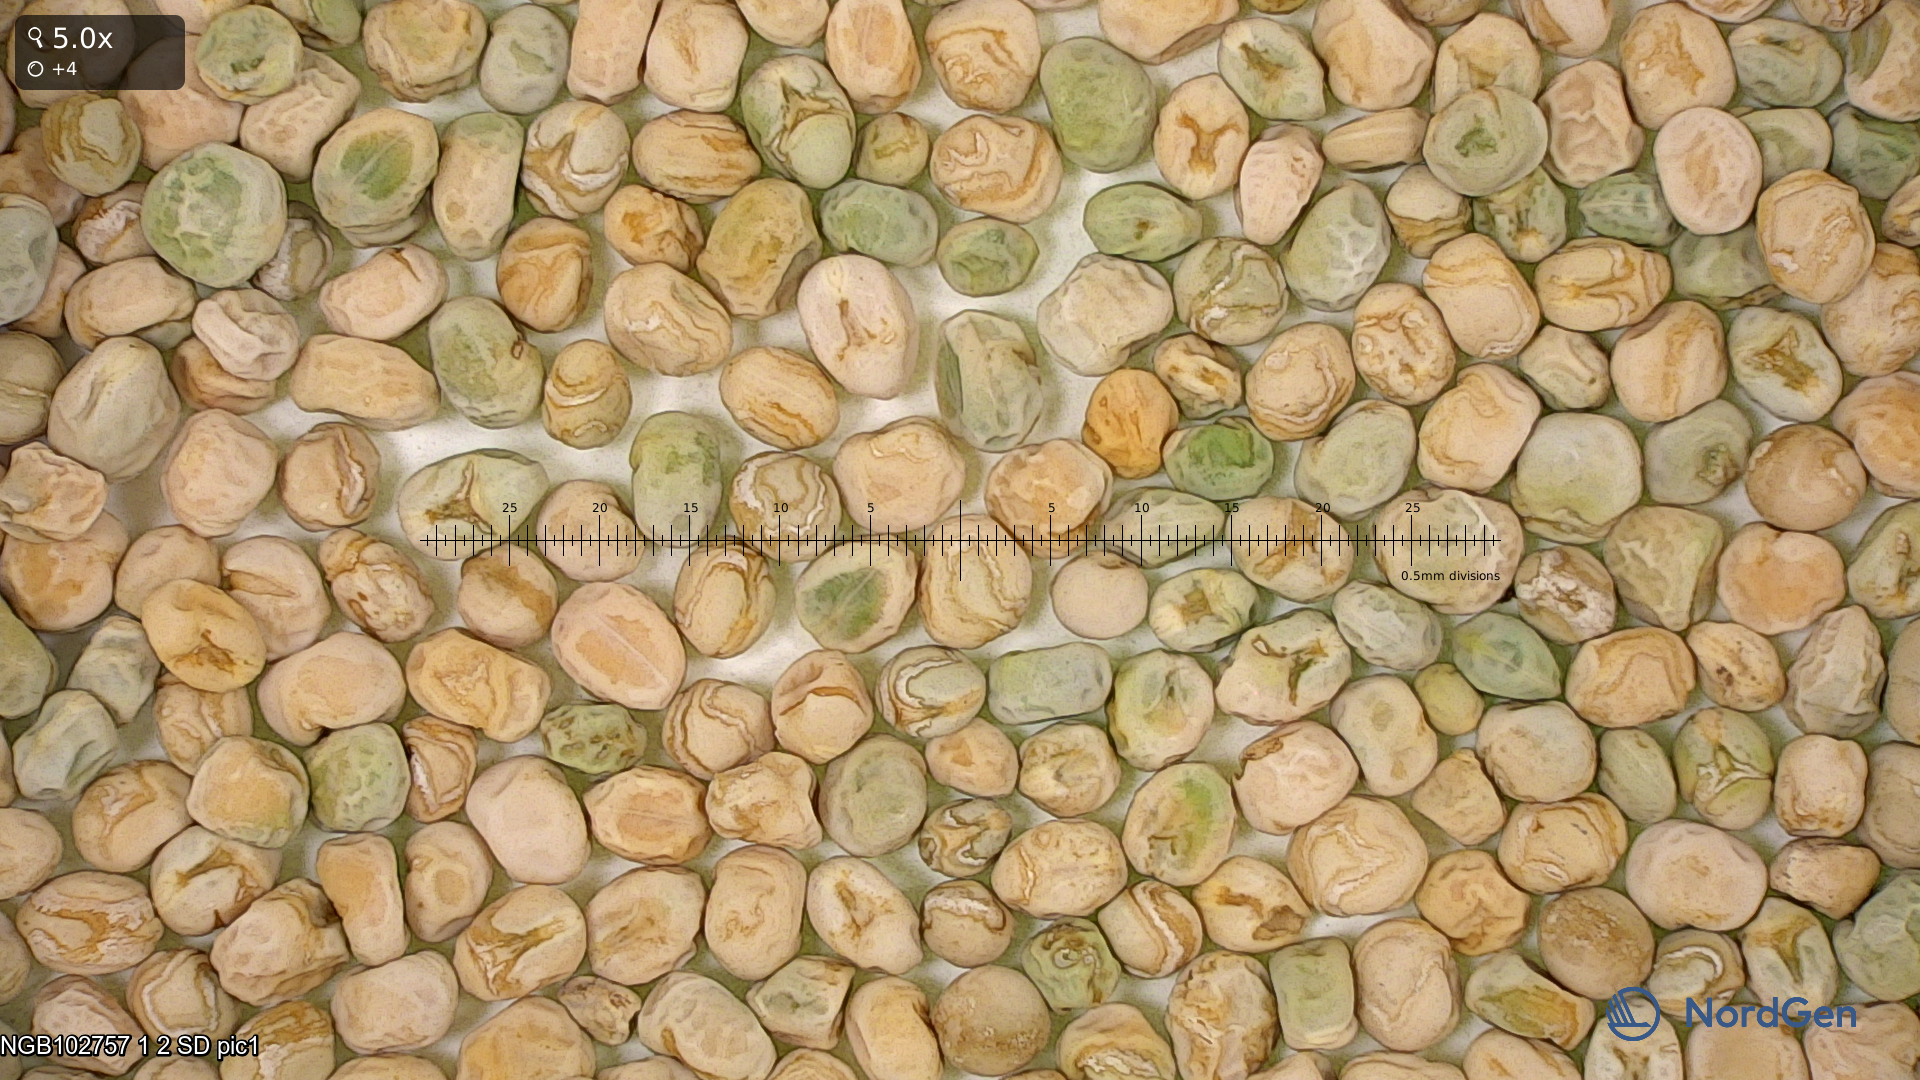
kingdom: Plantae
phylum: Tracheophyta
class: Magnoliopsida
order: Fabales
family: Fabaceae
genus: Lathyrus
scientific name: Lathyrus oleraceus
